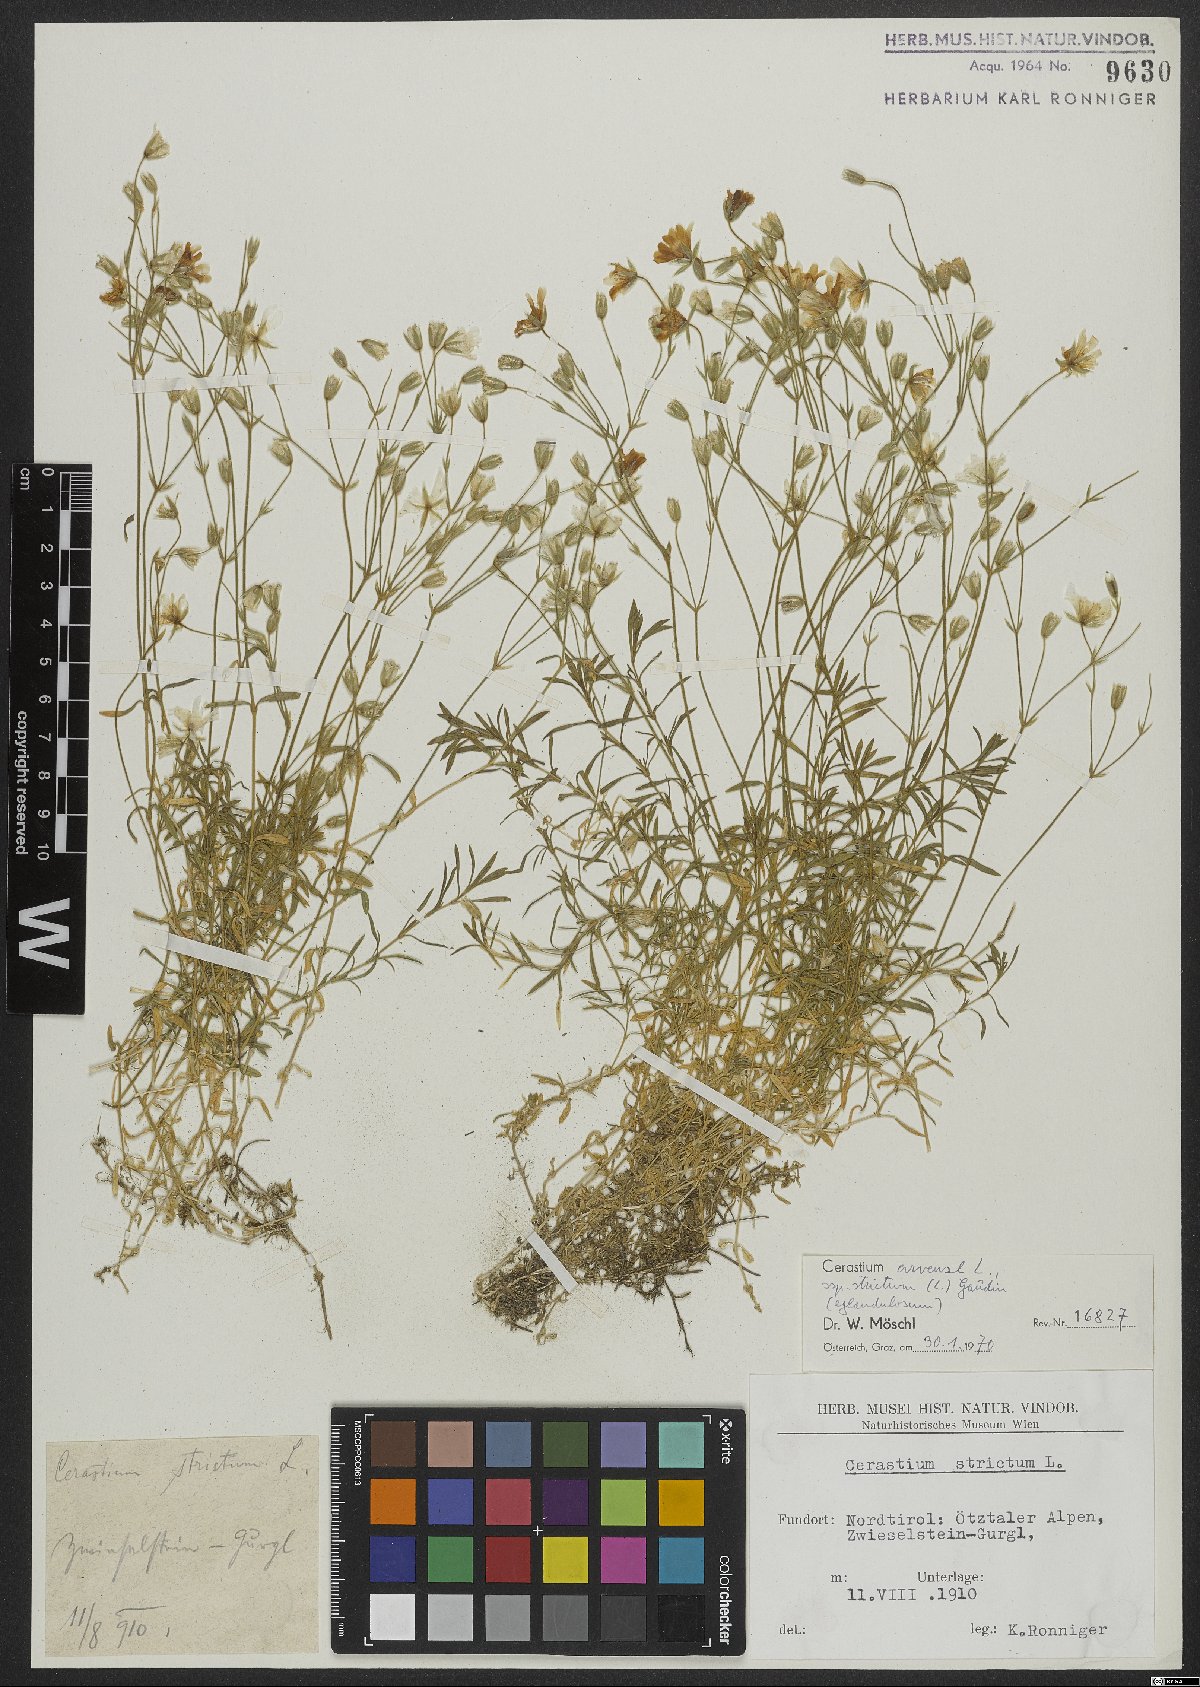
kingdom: Plantae
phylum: Tracheophyta
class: Magnoliopsida
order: Caryophyllales
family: Caryophyllaceae
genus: Cerastium
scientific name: Cerastium elongatum
